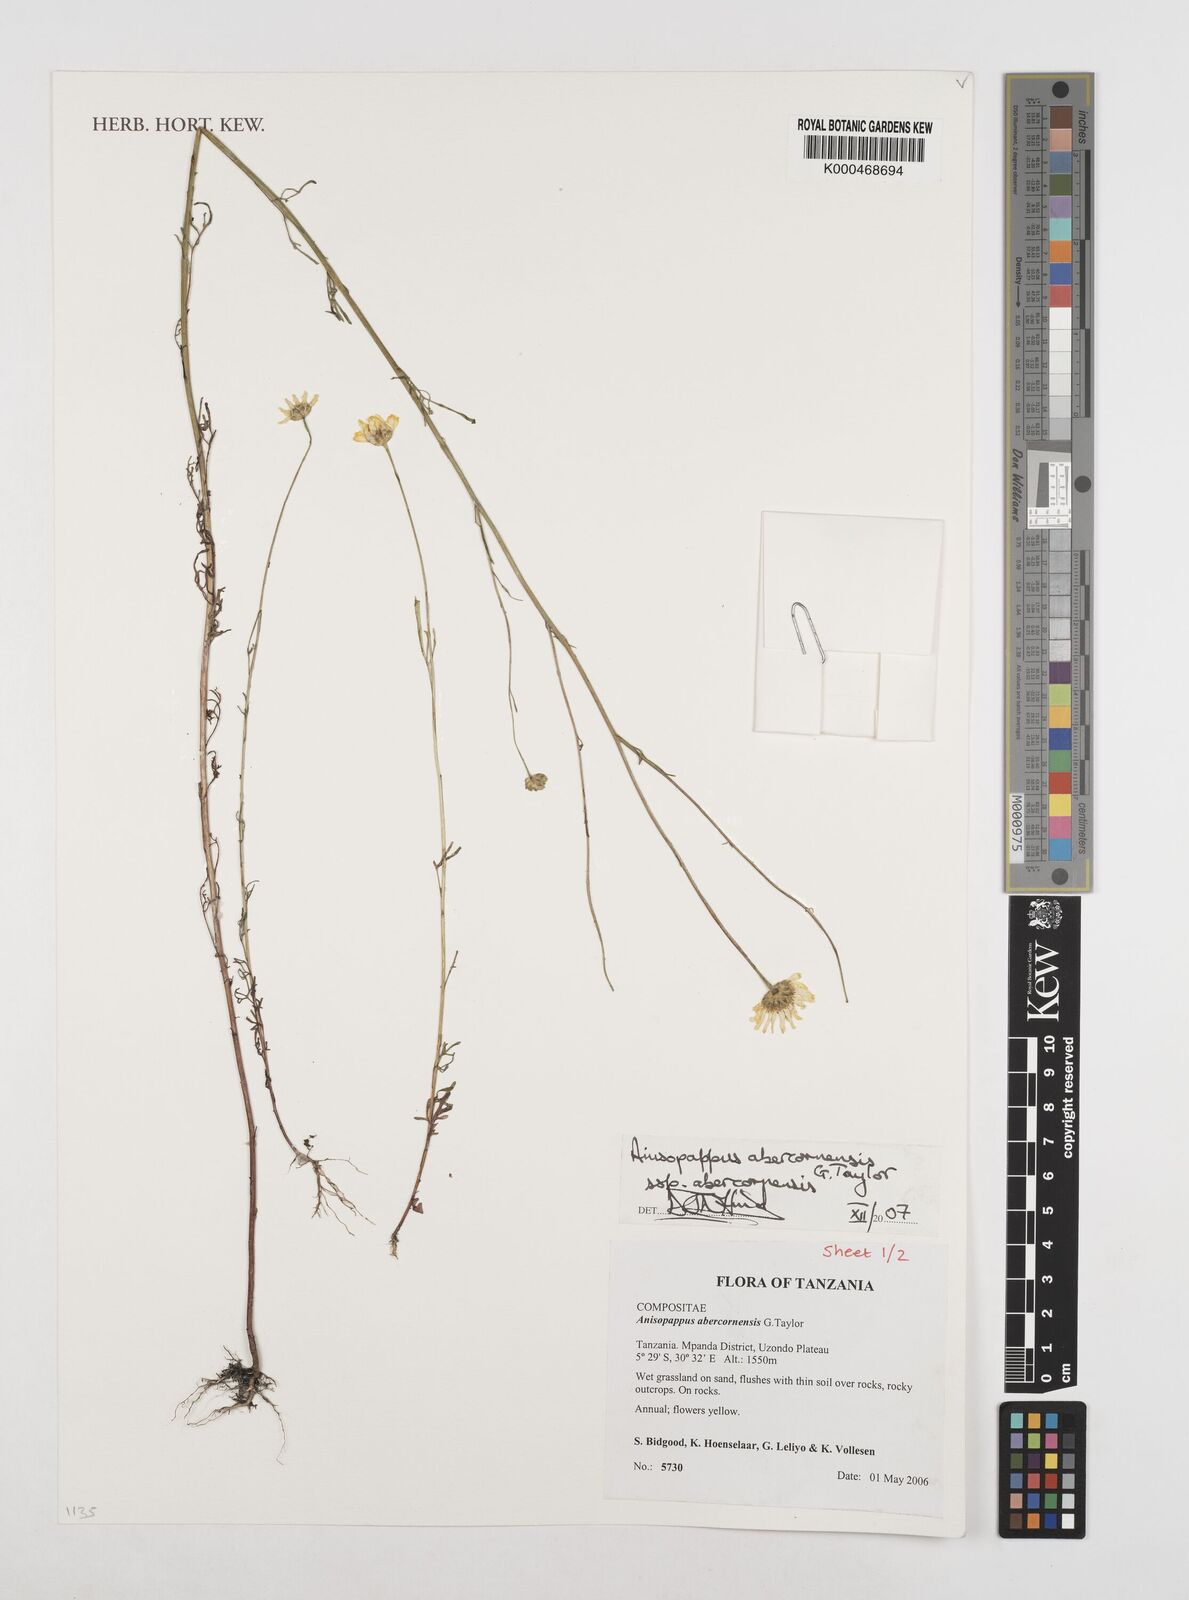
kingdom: Plantae
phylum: Tracheophyta
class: Magnoliopsida
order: Asterales
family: Asteraceae
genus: Anisopappus
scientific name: Anisopappus abercornensis
